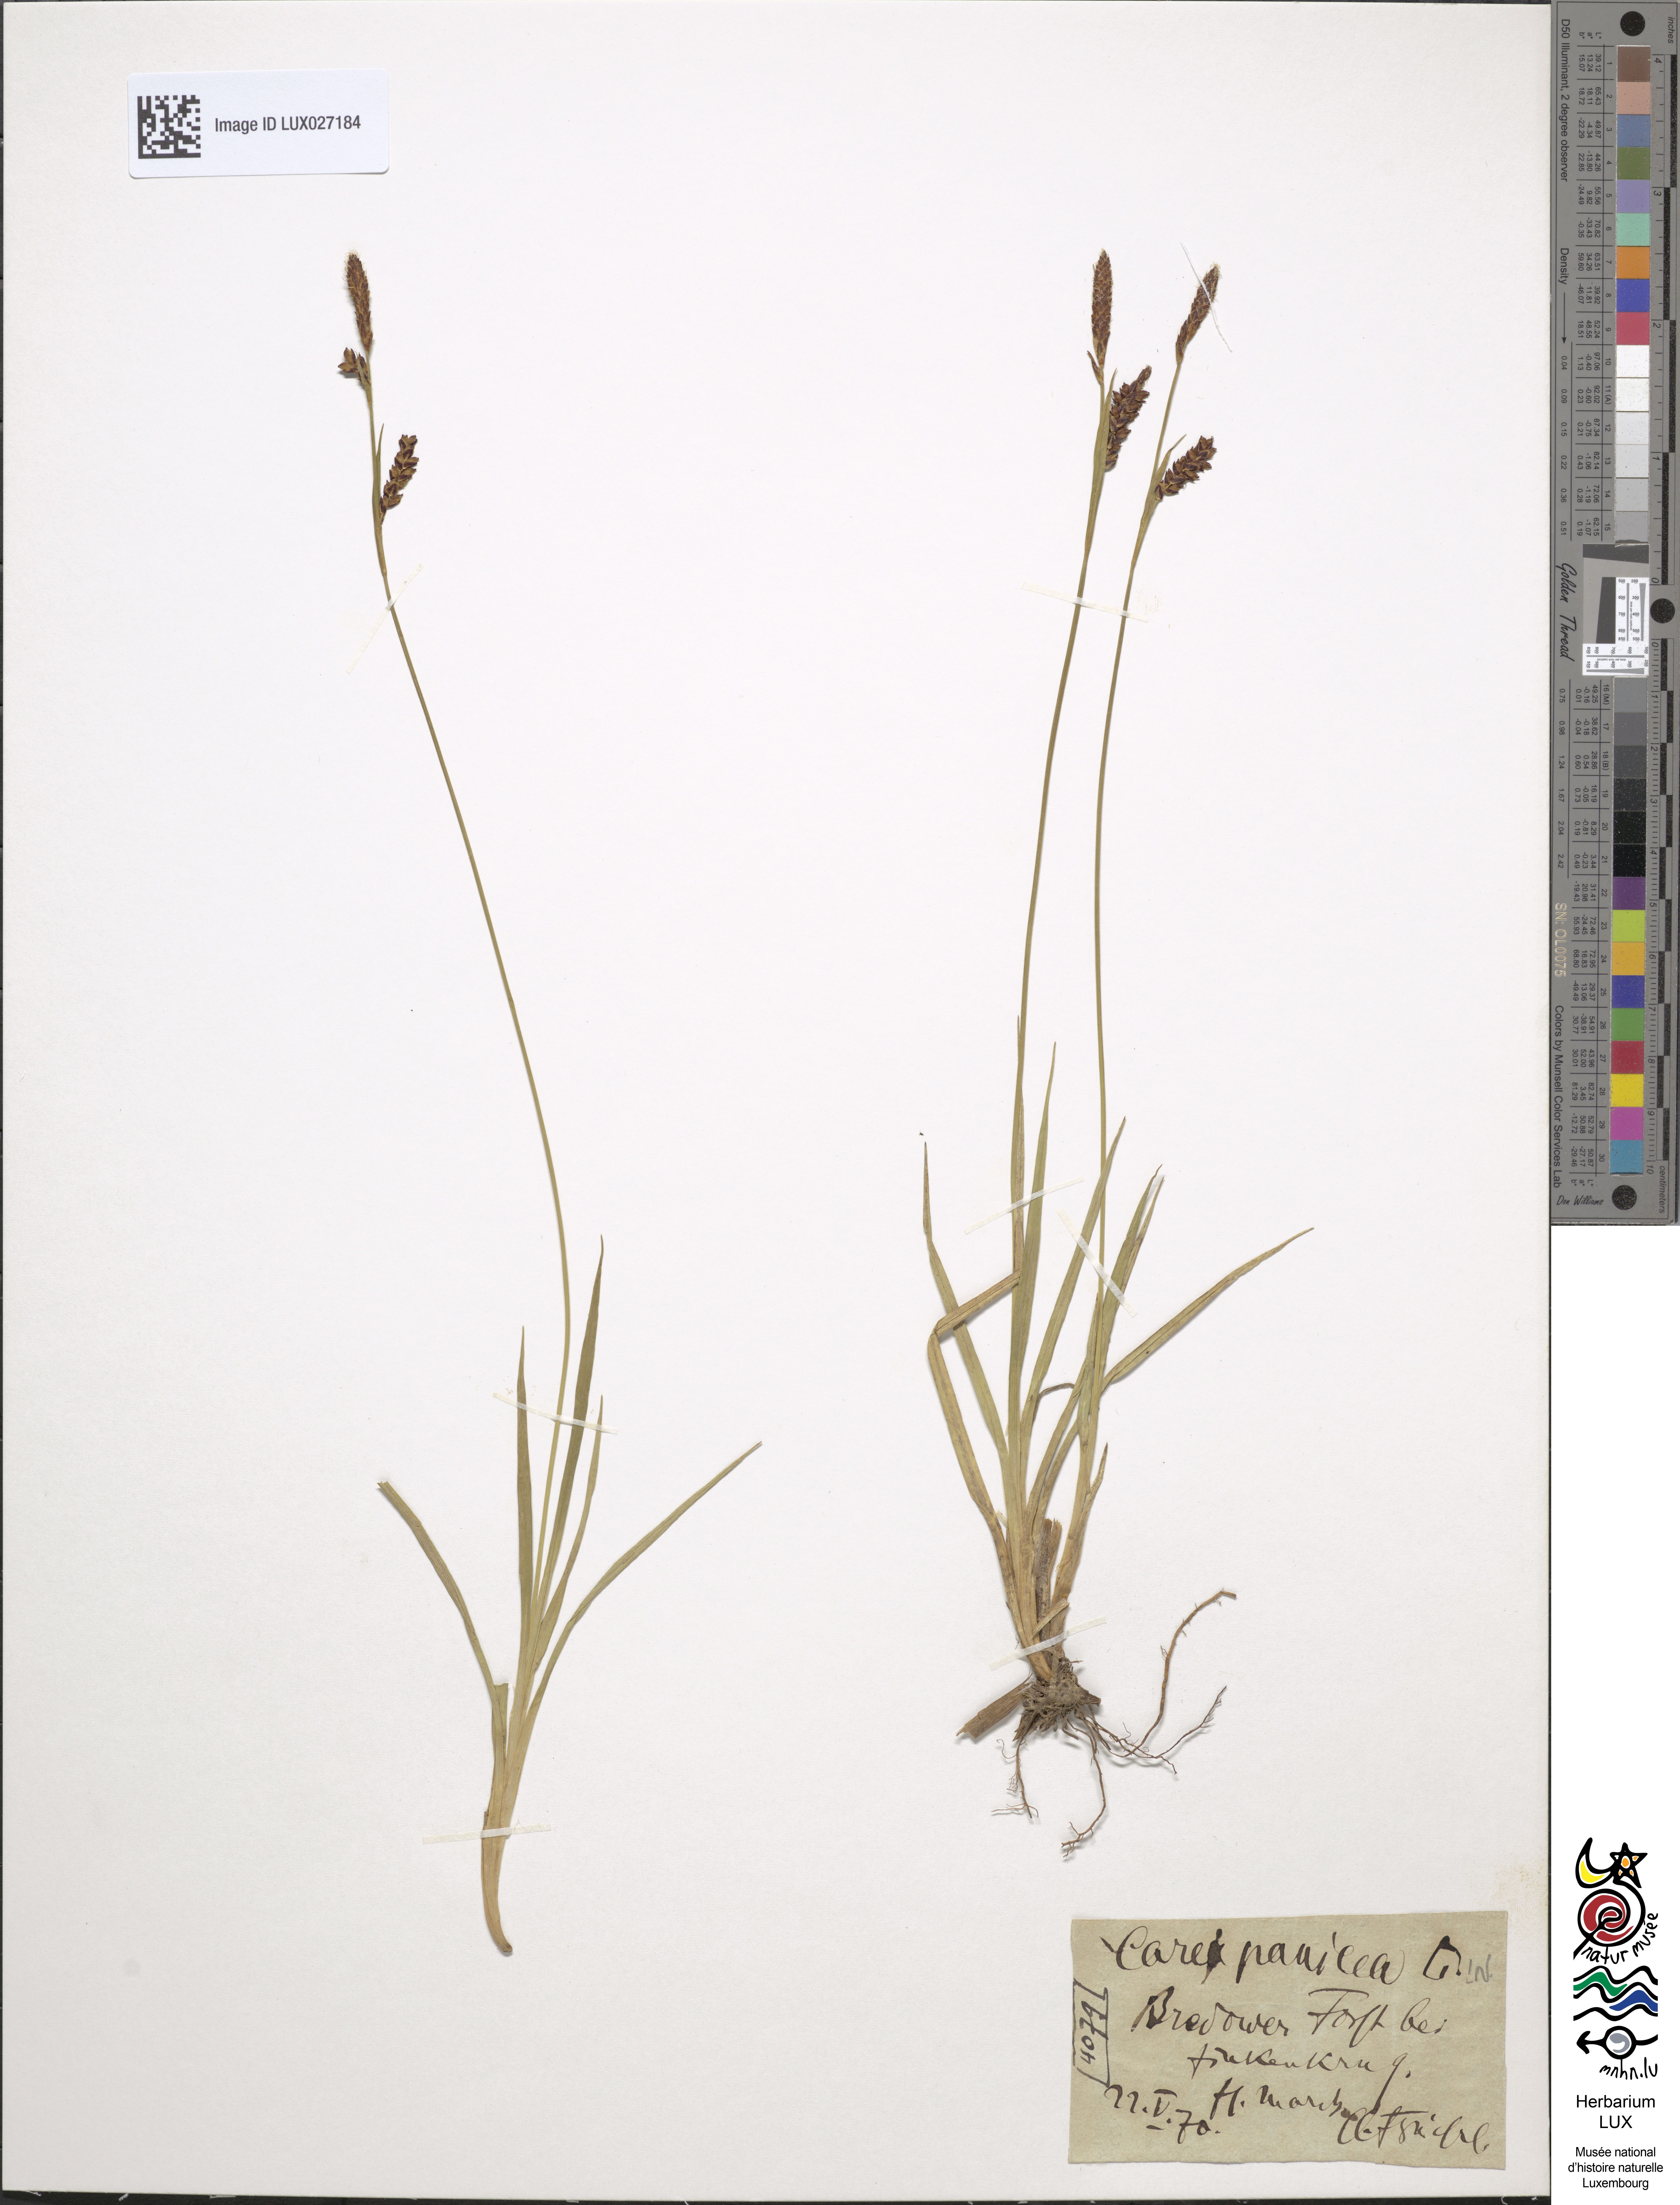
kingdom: Plantae
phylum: Tracheophyta
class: Liliopsida
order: Poales
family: Cyperaceae
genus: Carex
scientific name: Carex panicea
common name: Carnation sedge
